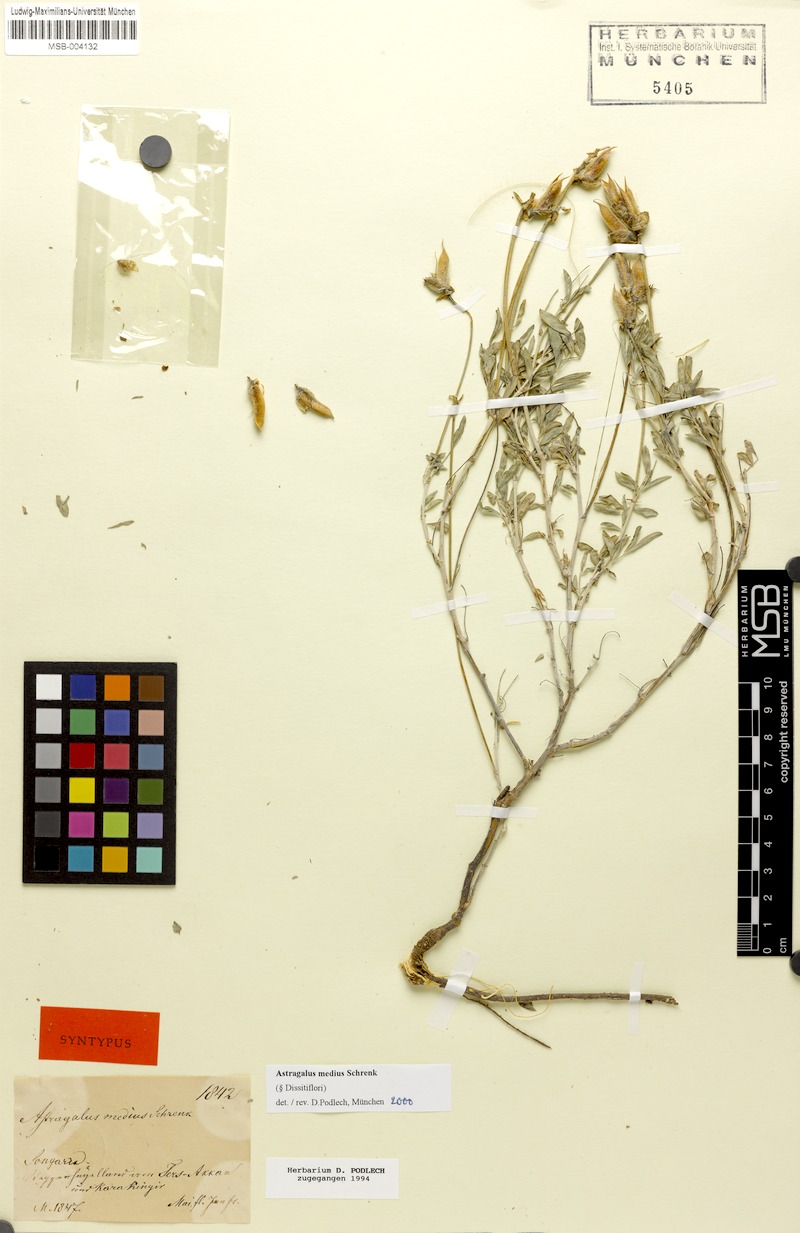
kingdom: Plantae
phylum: Tracheophyta
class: Magnoliopsida
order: Fabales
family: Fabaceae
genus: Astragalus
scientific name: Astragalus medius
